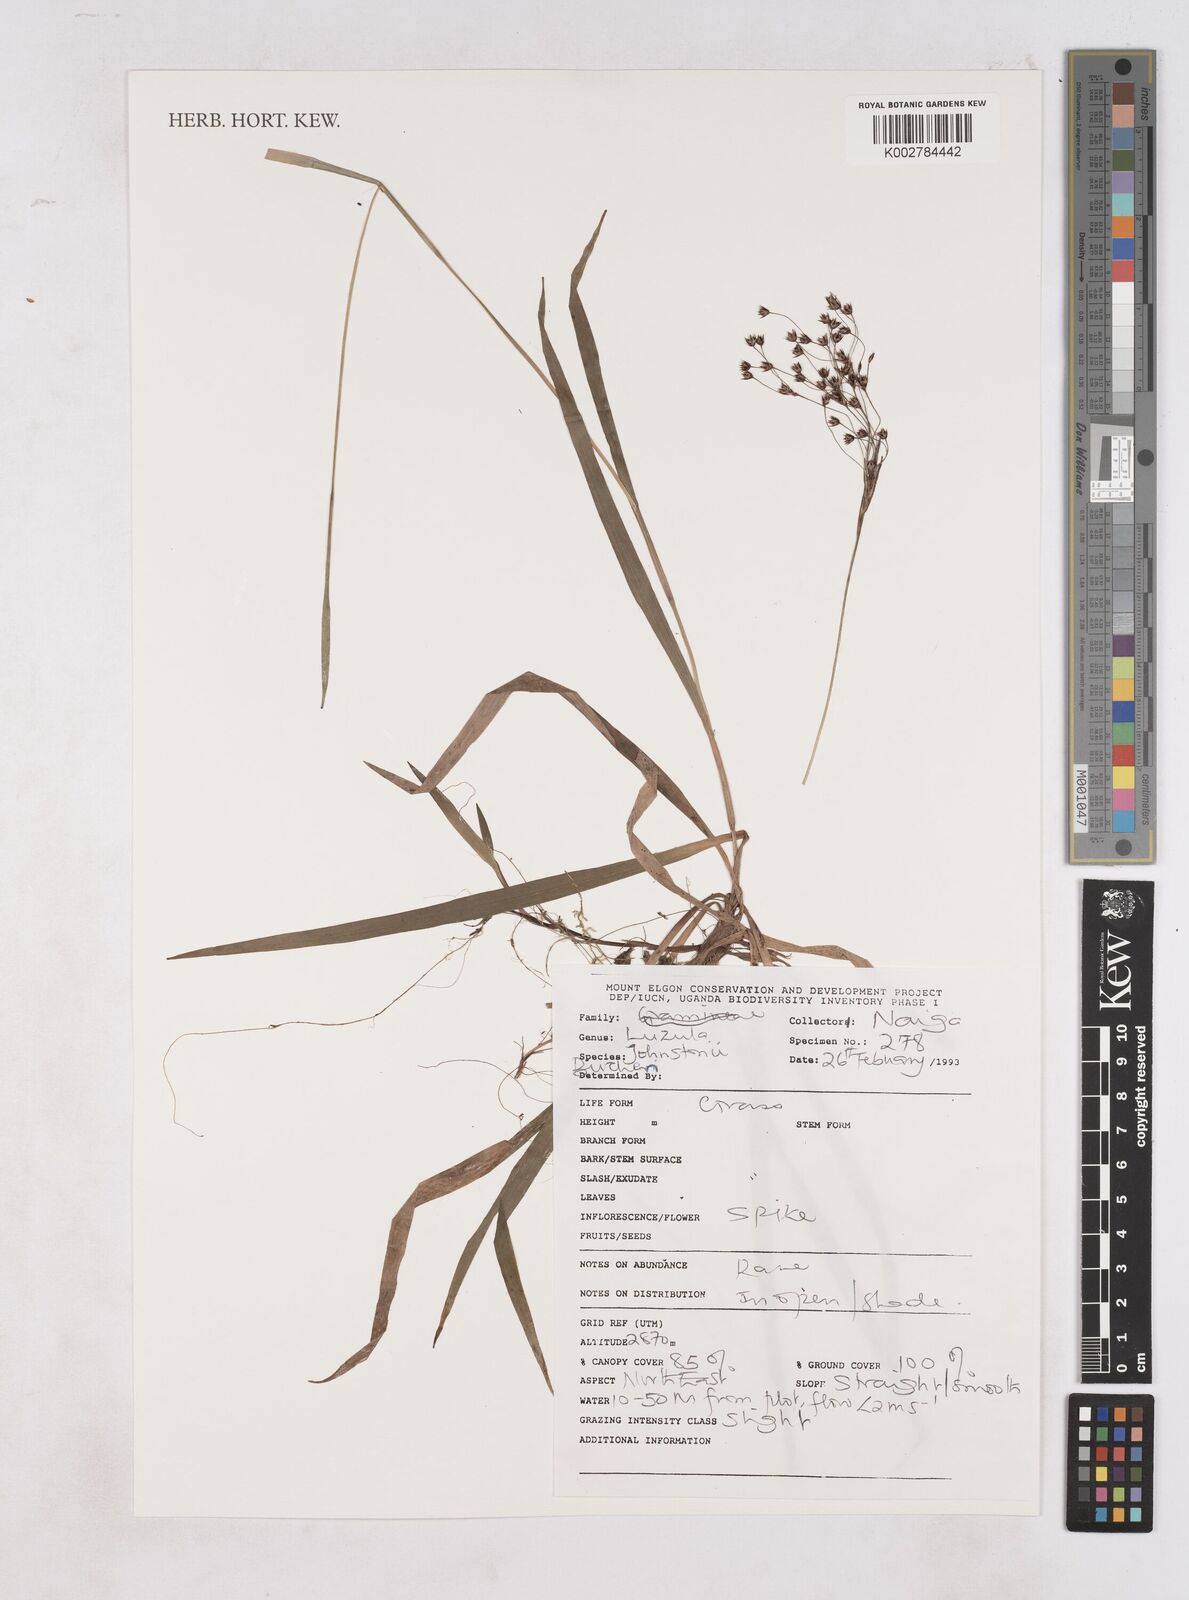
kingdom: Plantae
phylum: Tracheophyta
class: Liliopsida
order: Poales
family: Juncaceae
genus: Luzula
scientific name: Luzula johnstonii
